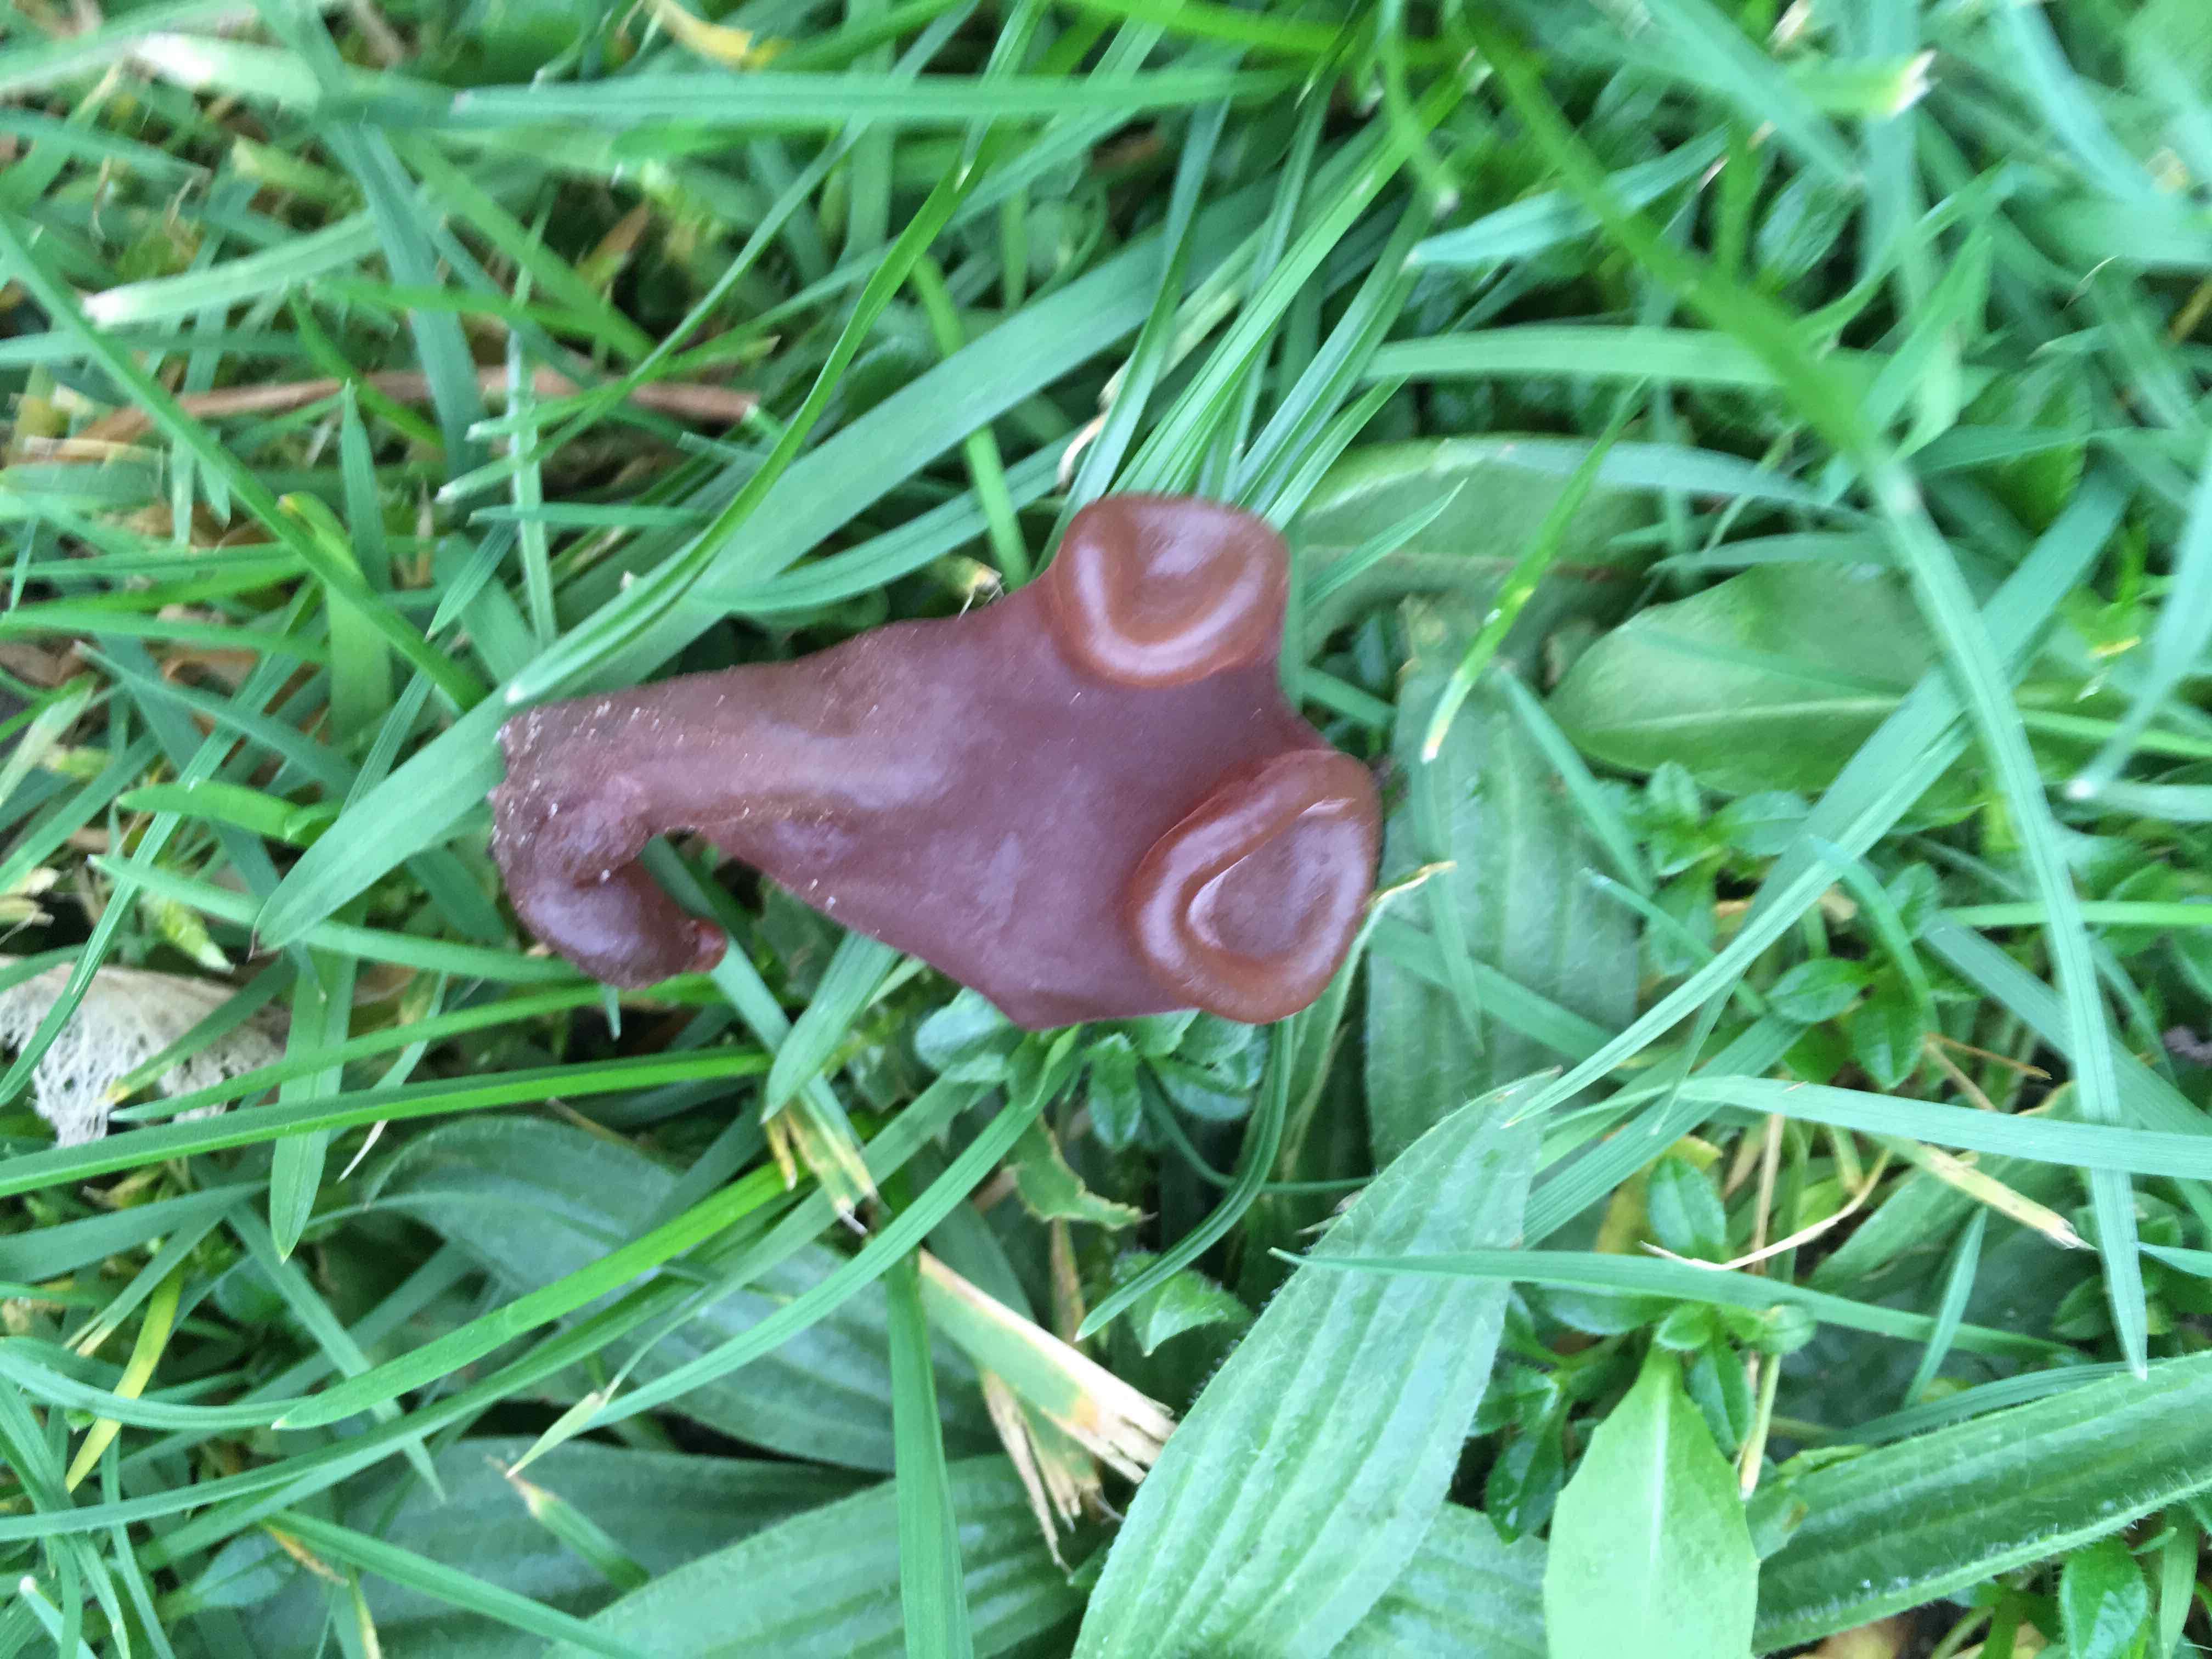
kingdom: Fungi
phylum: Ascomycota
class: Leotiomycetes
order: Helotiales
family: Gelatinodiscaceae
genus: Ascocoryne
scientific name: Ascocoryne
